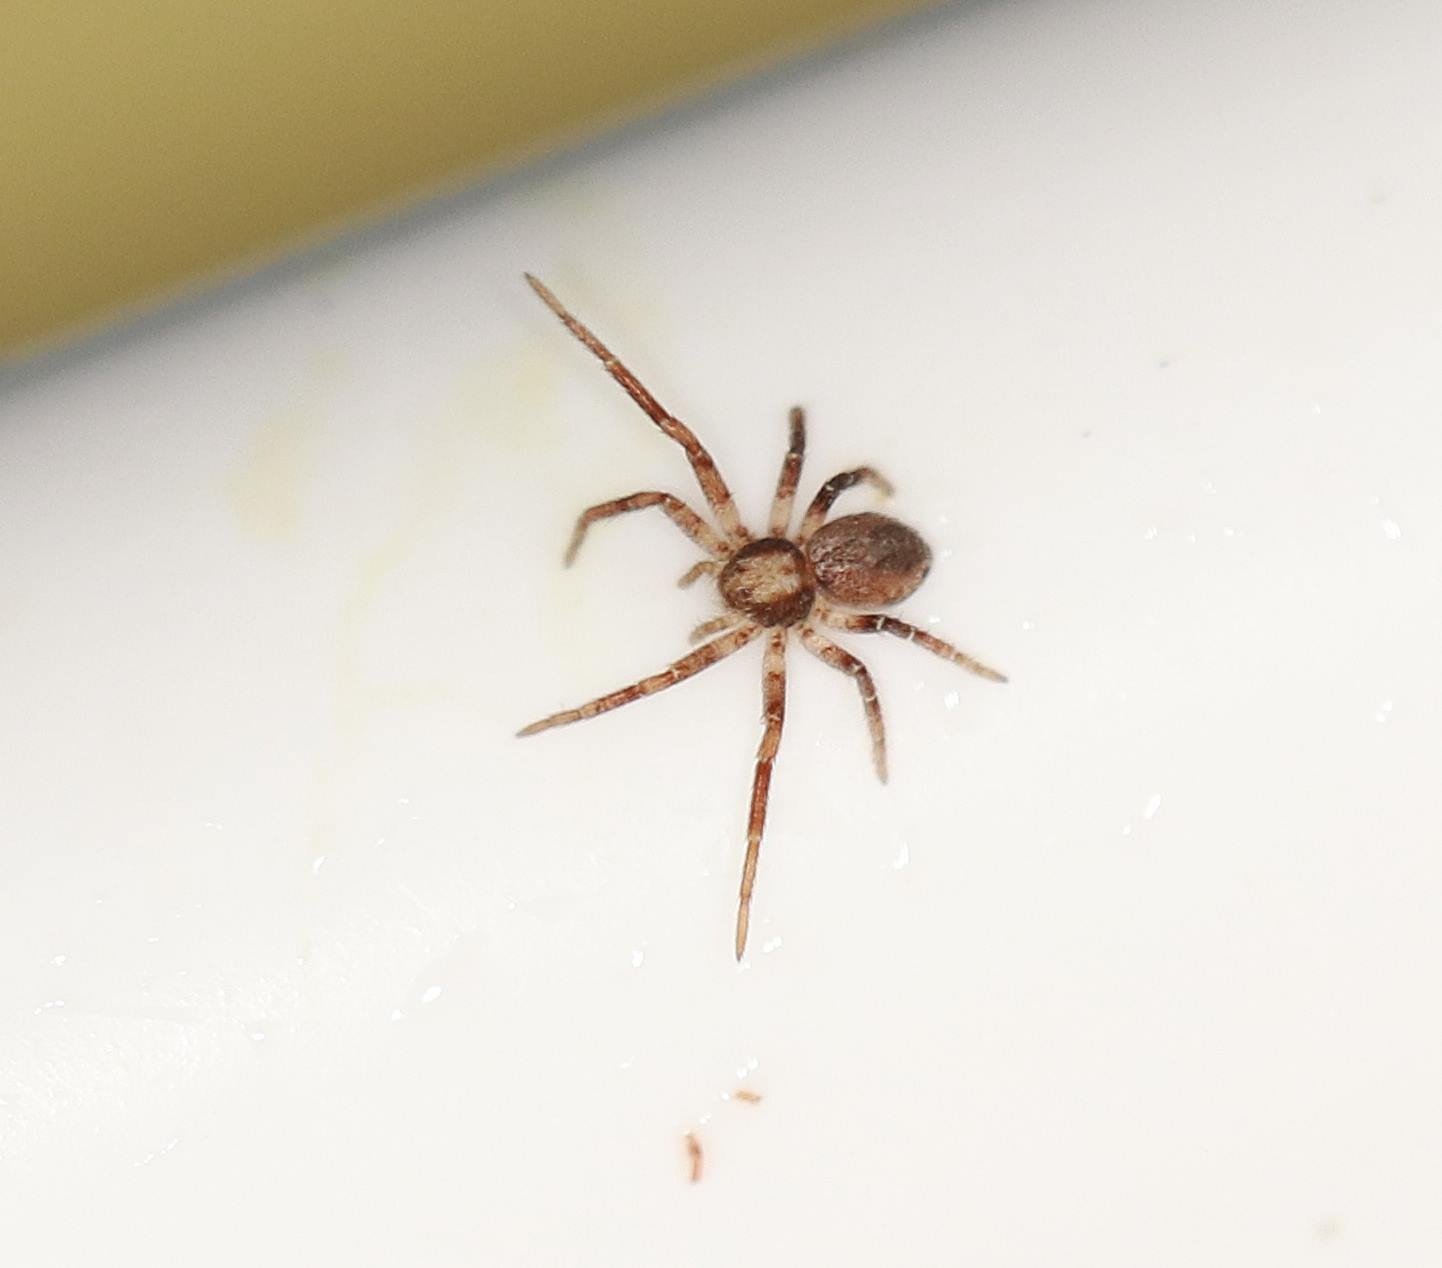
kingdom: Animalia
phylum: Arthropoda
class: Arachnida
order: Araneae
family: Philodromidae
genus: Philodromus
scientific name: Philodromus
